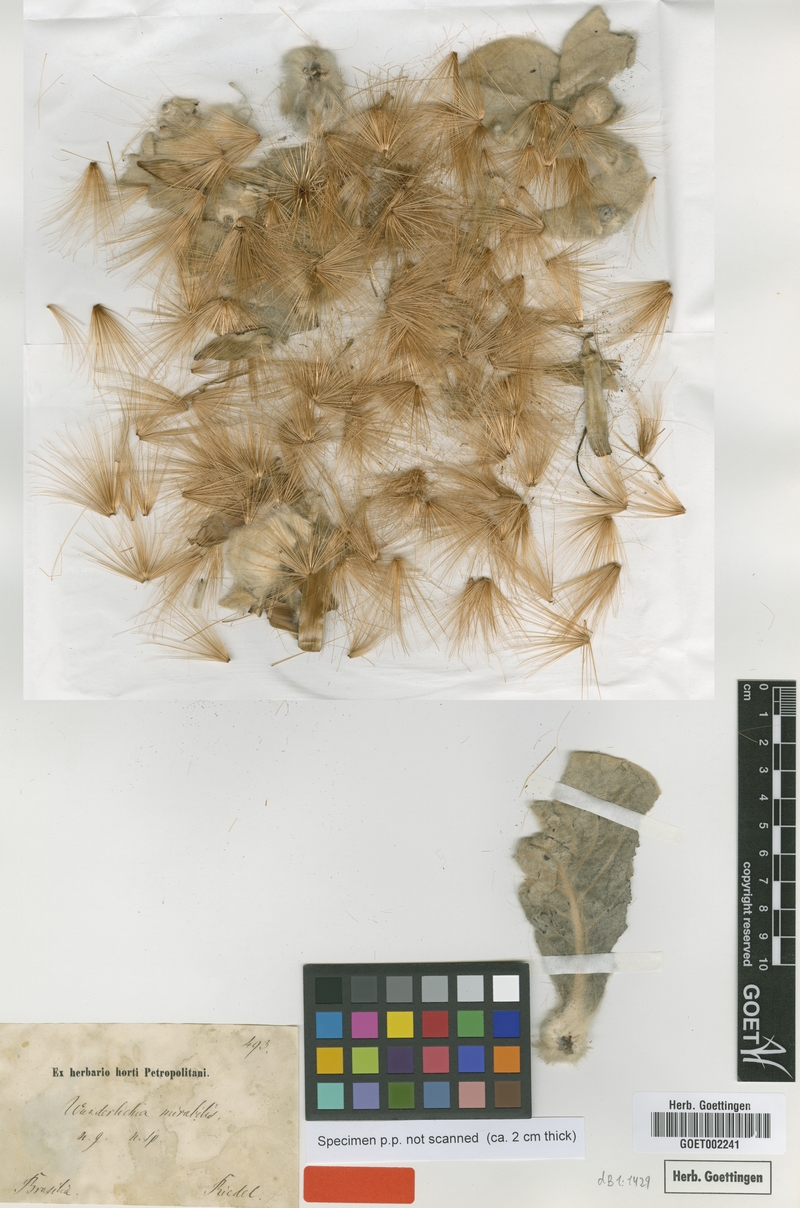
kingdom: Plantae
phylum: Tracheophyta
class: Magnoliopsida
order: Asterales
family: Asteraceae
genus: Wunderlichia
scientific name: Wunderlichia mirabilis
